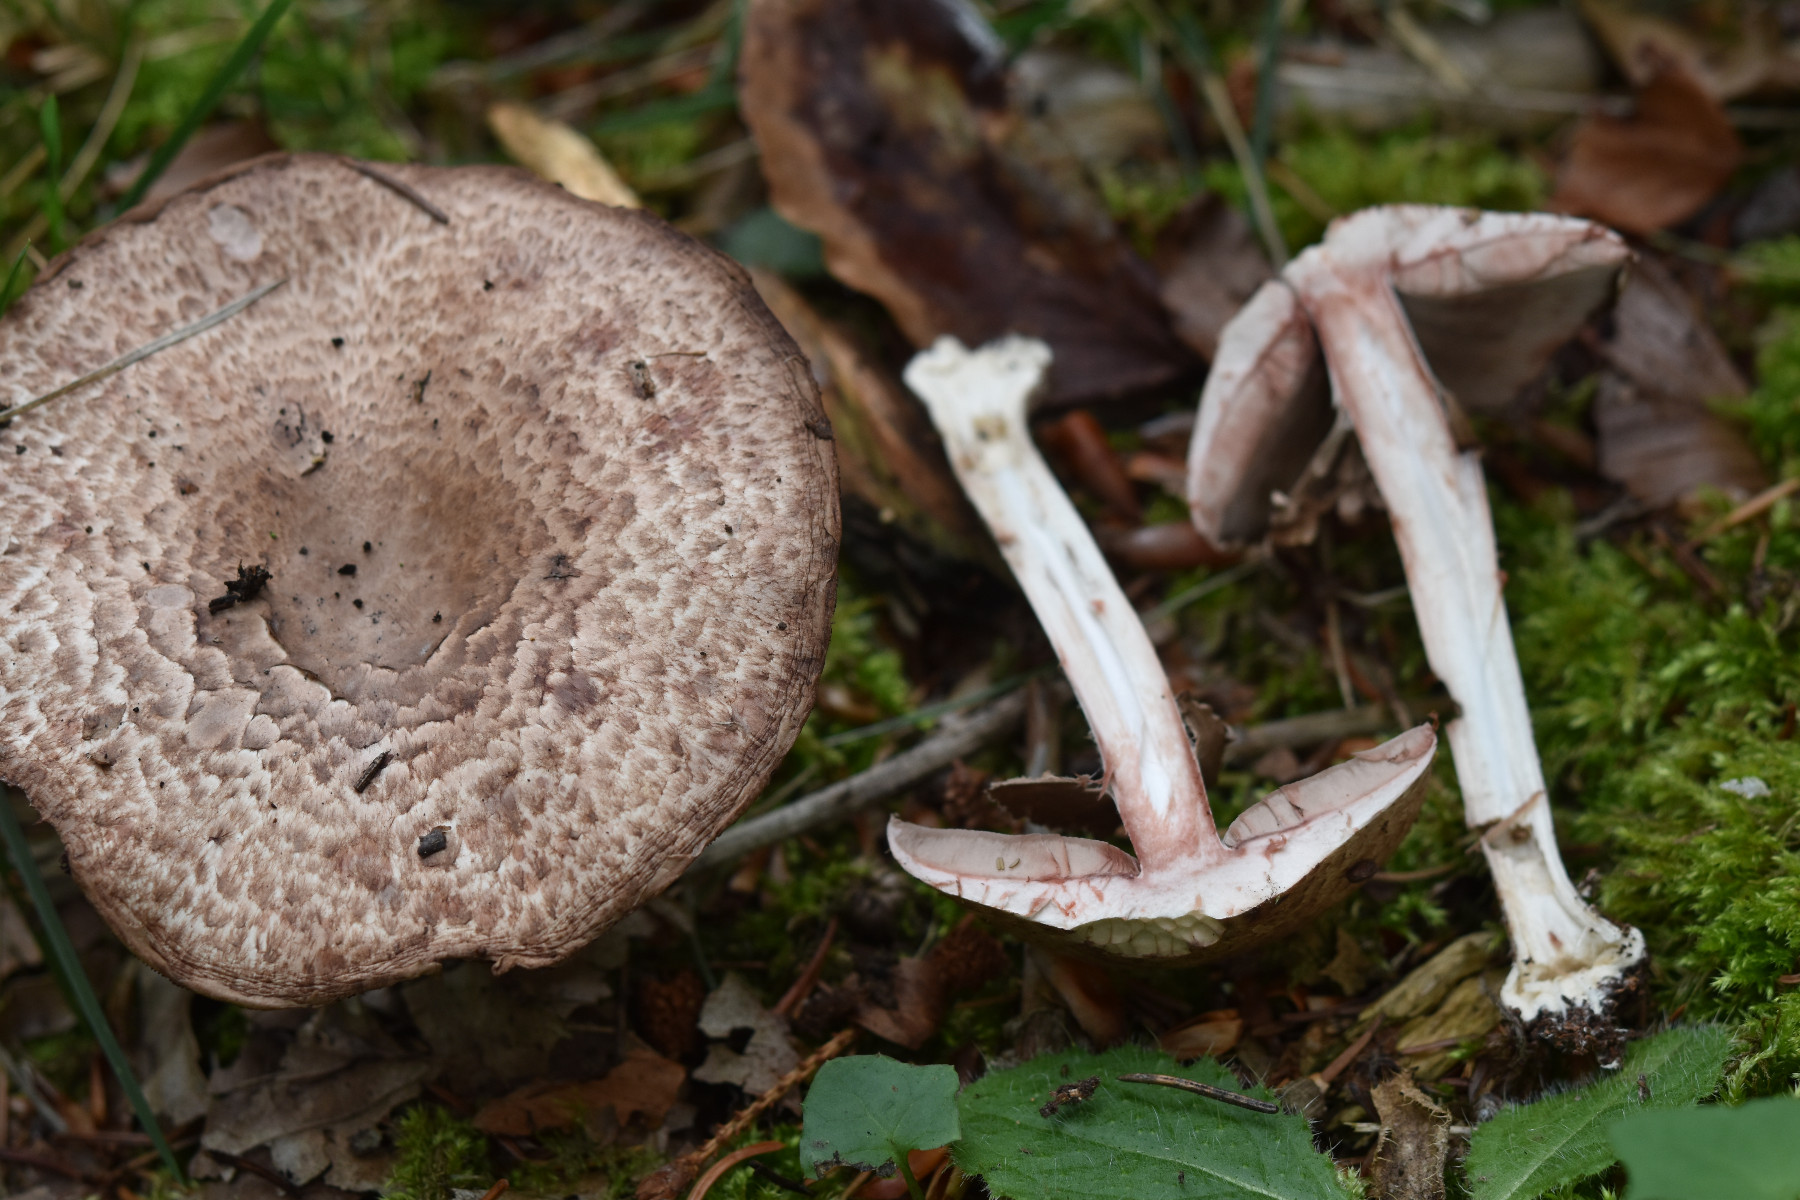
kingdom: Fungi
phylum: Basidiomycota
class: Agaricomycetes
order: Agaricales
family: Agaricaceae
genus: Agaricus
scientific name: Agaricus sylvaticus
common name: lille blod-champignon
